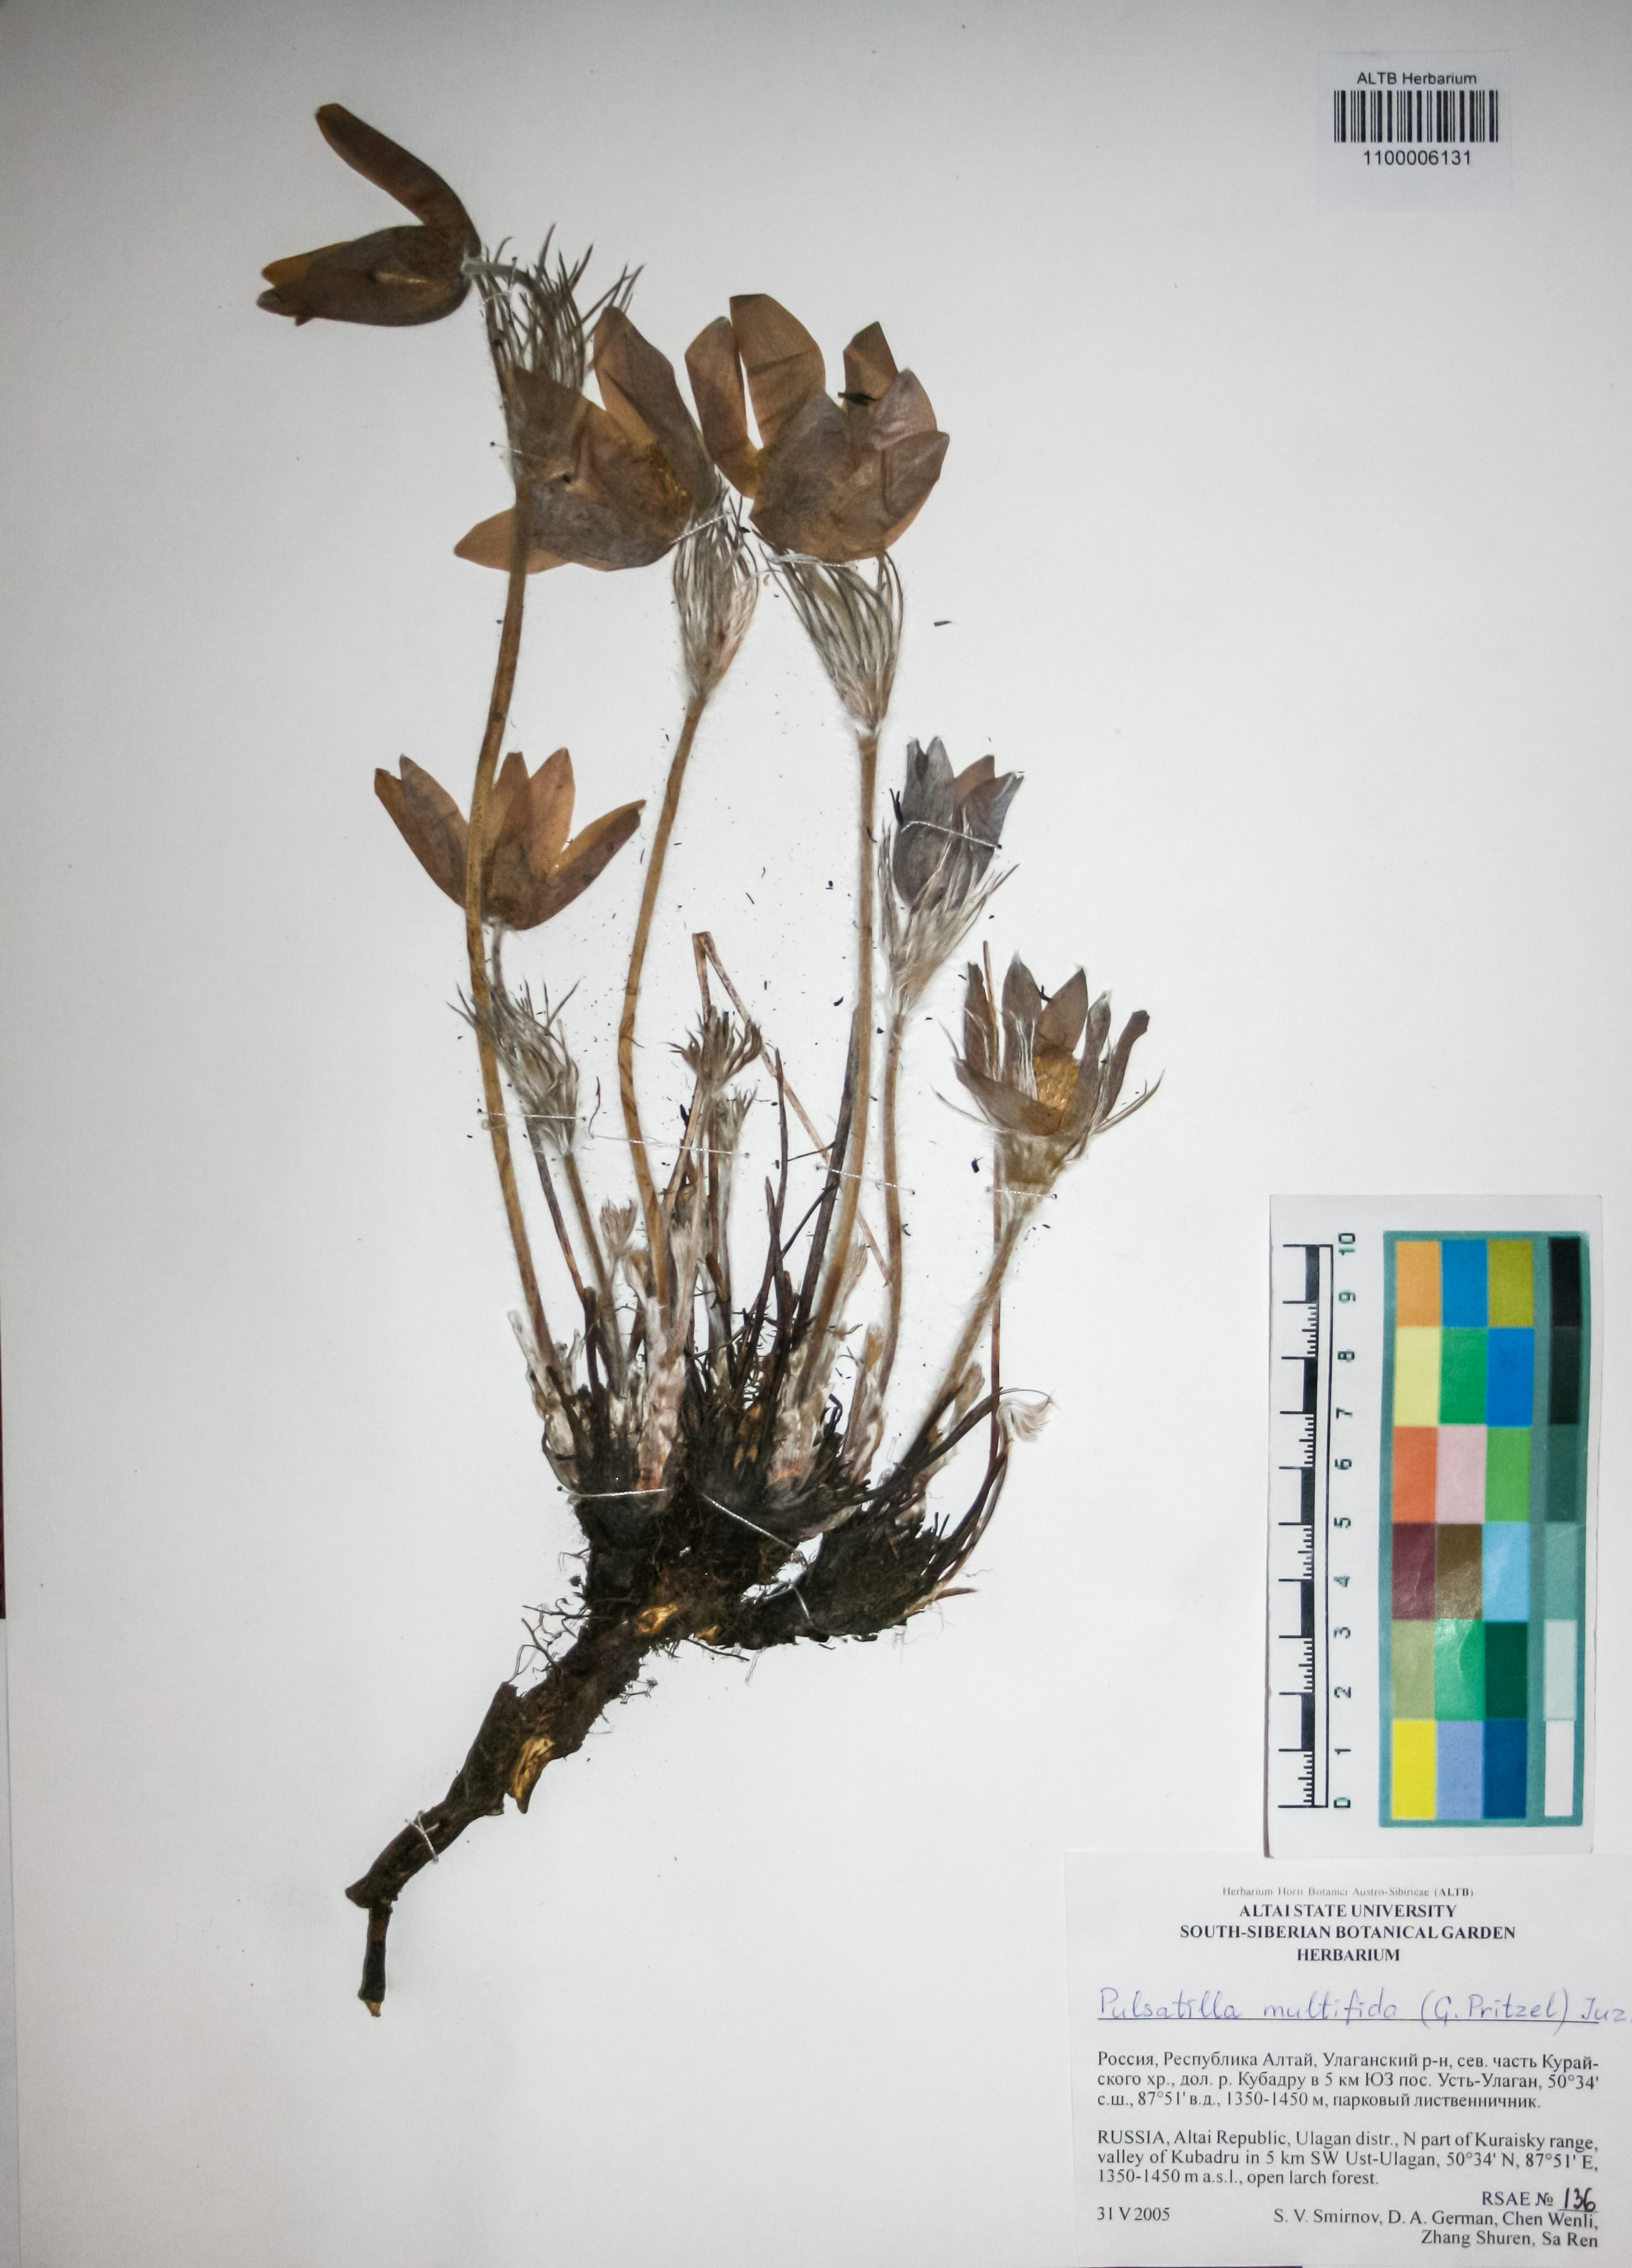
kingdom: Plantae
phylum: Tracheophyta
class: Magnoliopsida
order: Ranunculales
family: Ranunculaceae
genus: Pulsatilla
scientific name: Pulsatilla patens
